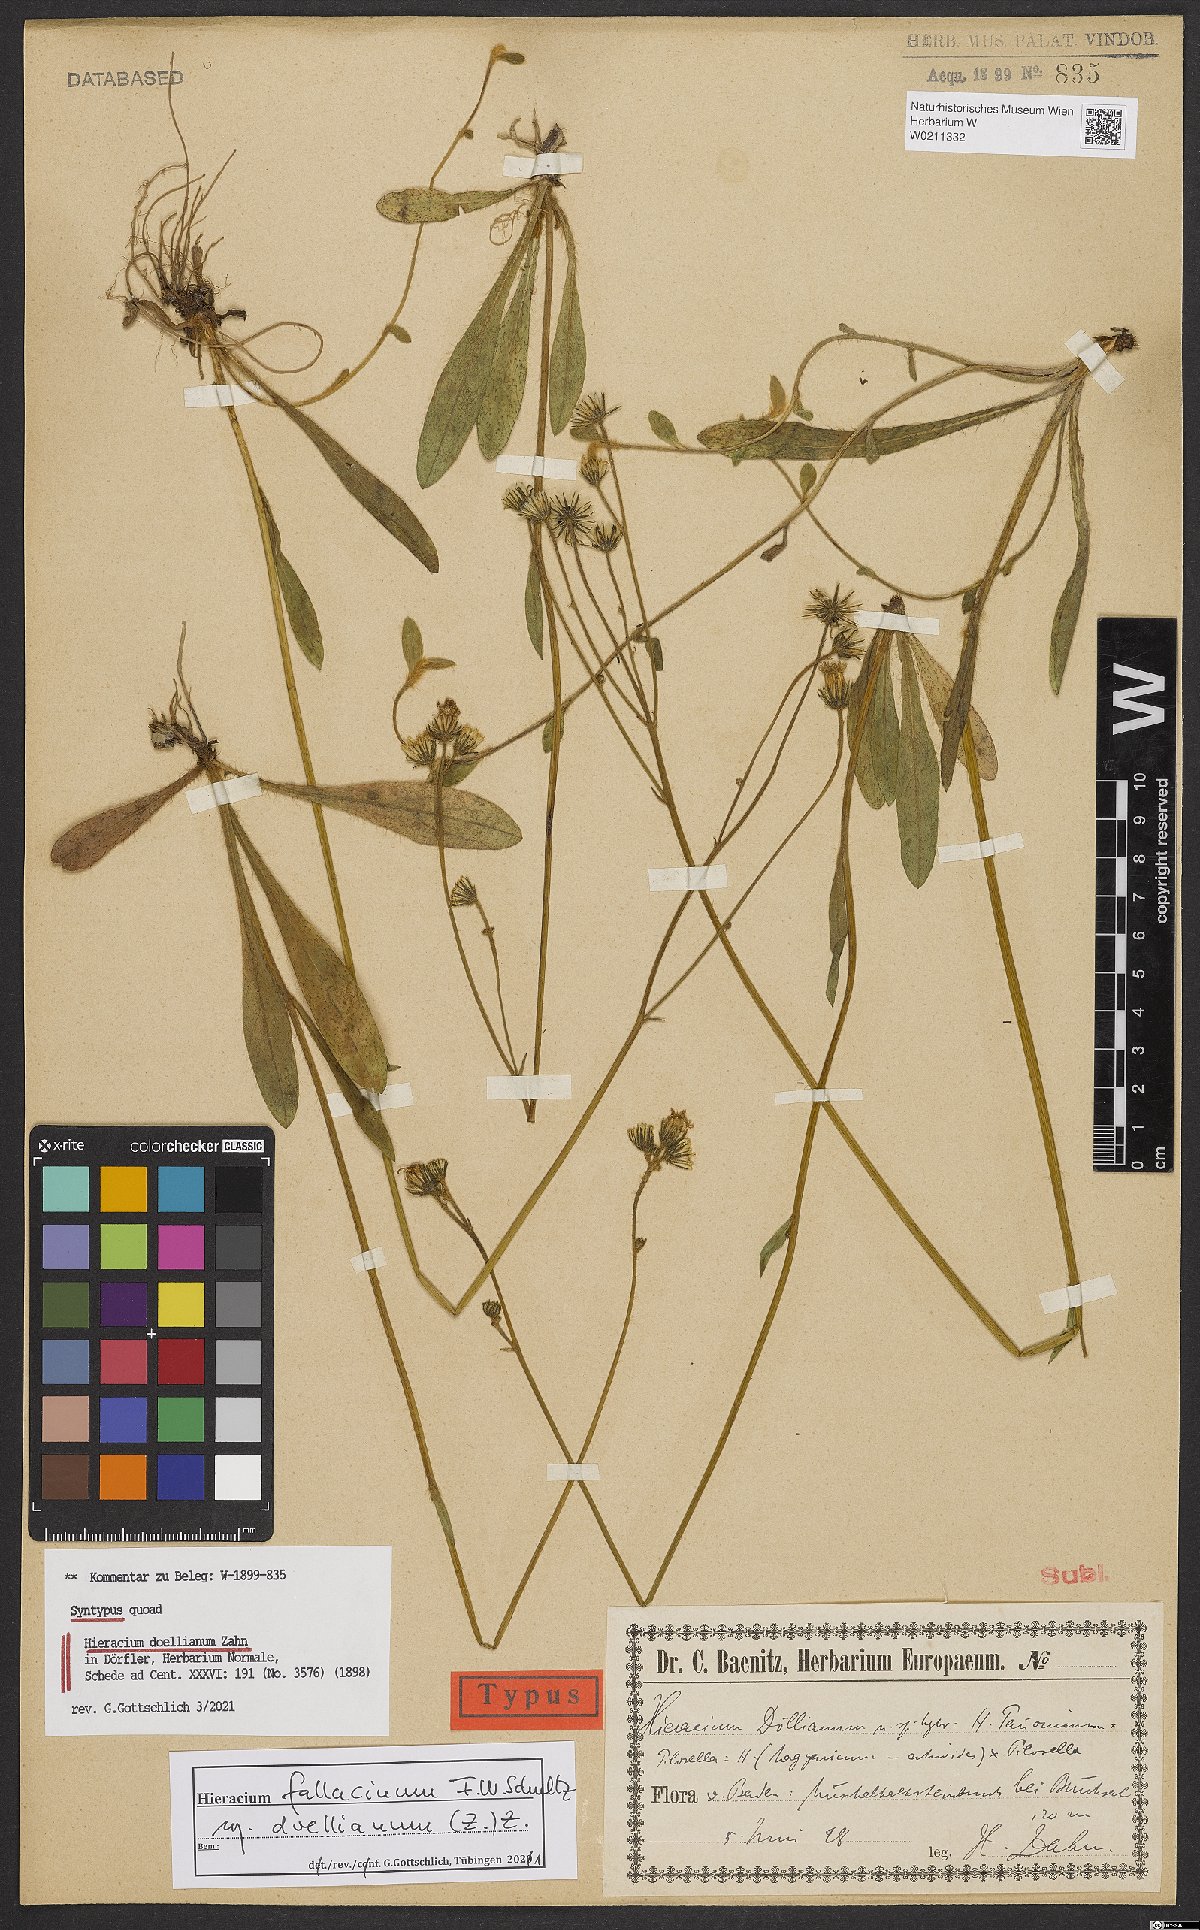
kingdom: Plantae
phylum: Tracheophyta
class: Magnoliopsida
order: Asterales
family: Asteraceae
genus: Pilosella
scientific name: Pilosella fallacina
